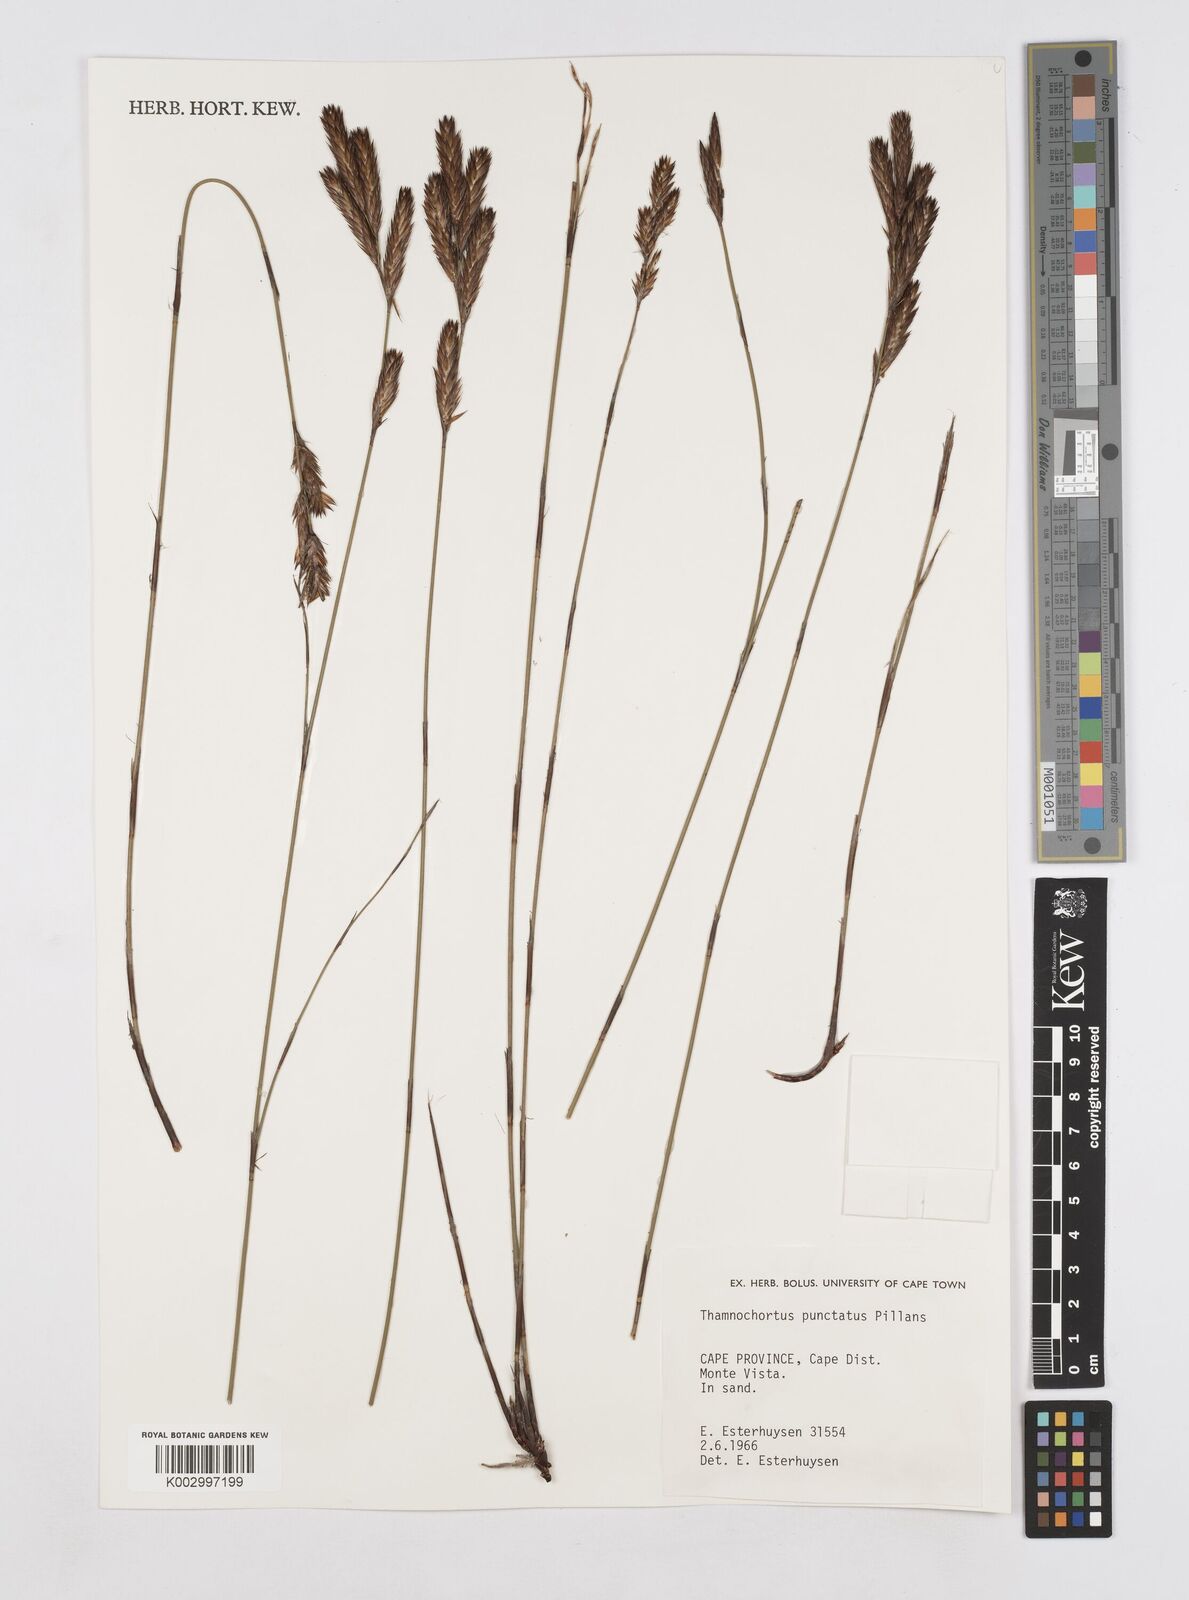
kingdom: Plantae
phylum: Tracheophyta
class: Liliopsida
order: Poales
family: Restionaceae
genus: Thamnochortus
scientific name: Thamnochortus punctatus
